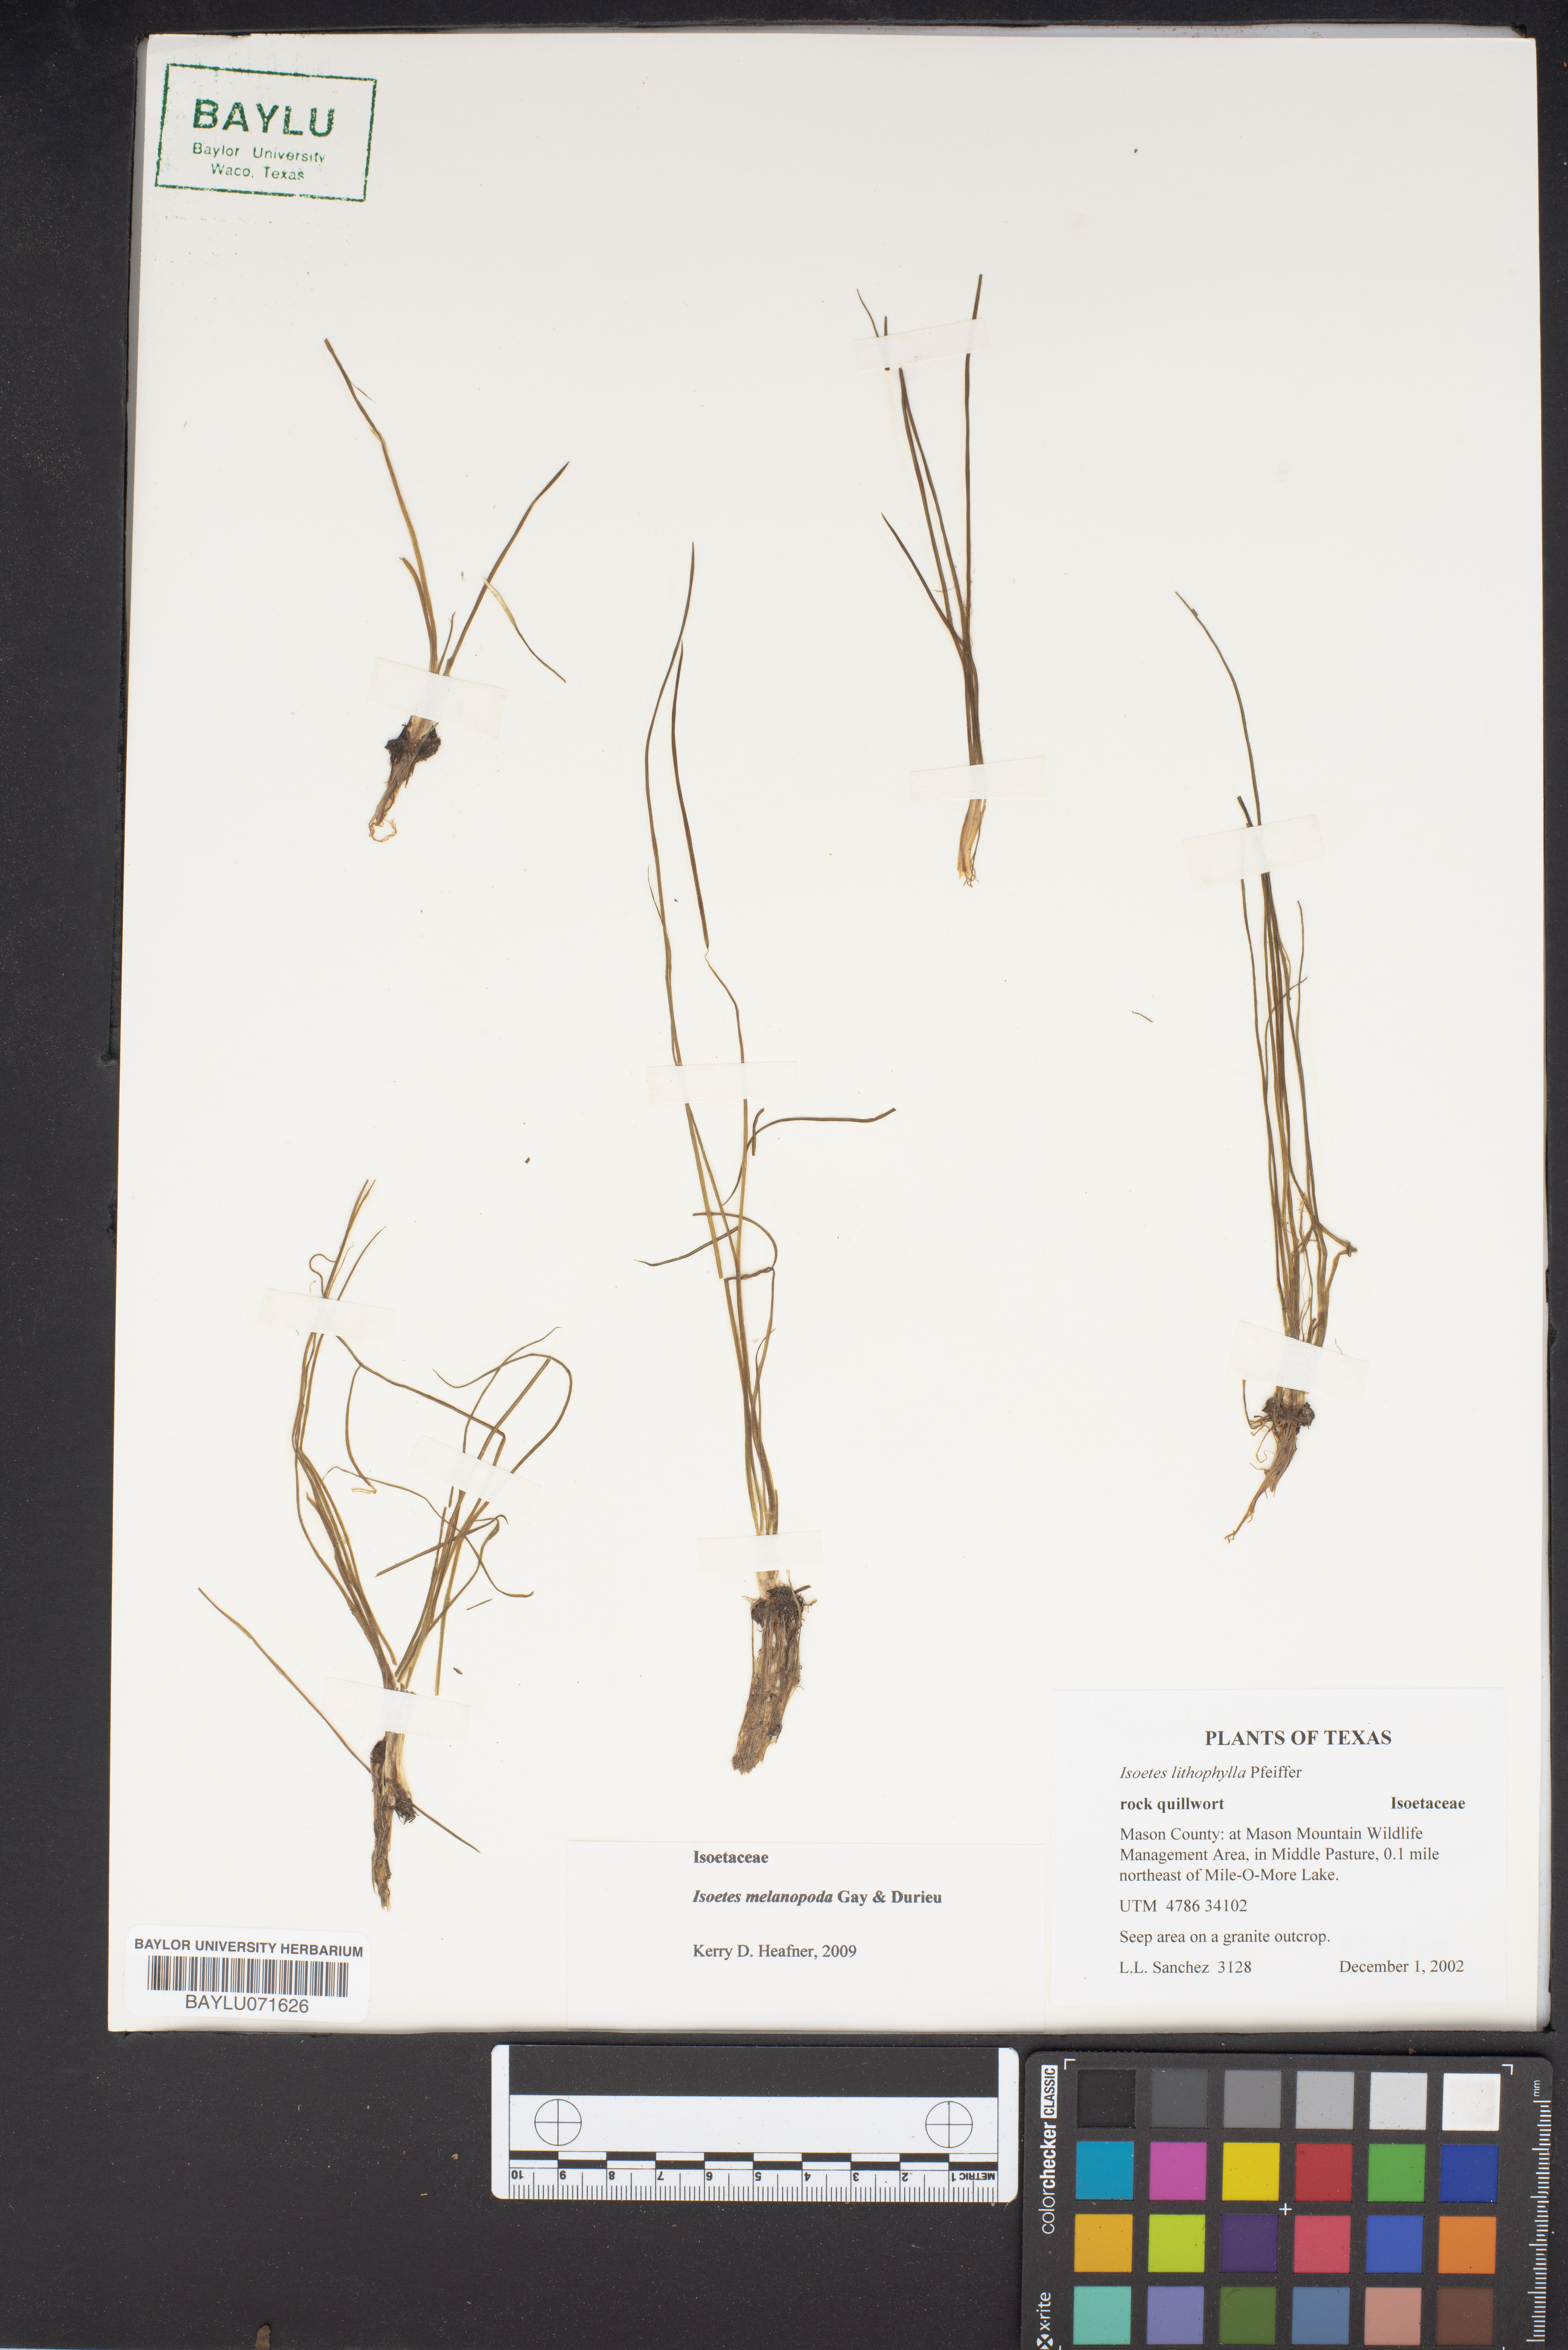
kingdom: Plantae
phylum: Tracheophyta
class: Lycopodiopsida
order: Isoetales
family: Isoetaceae
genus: Isoetes
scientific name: Isoetes lithophila
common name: Rock quillwort
